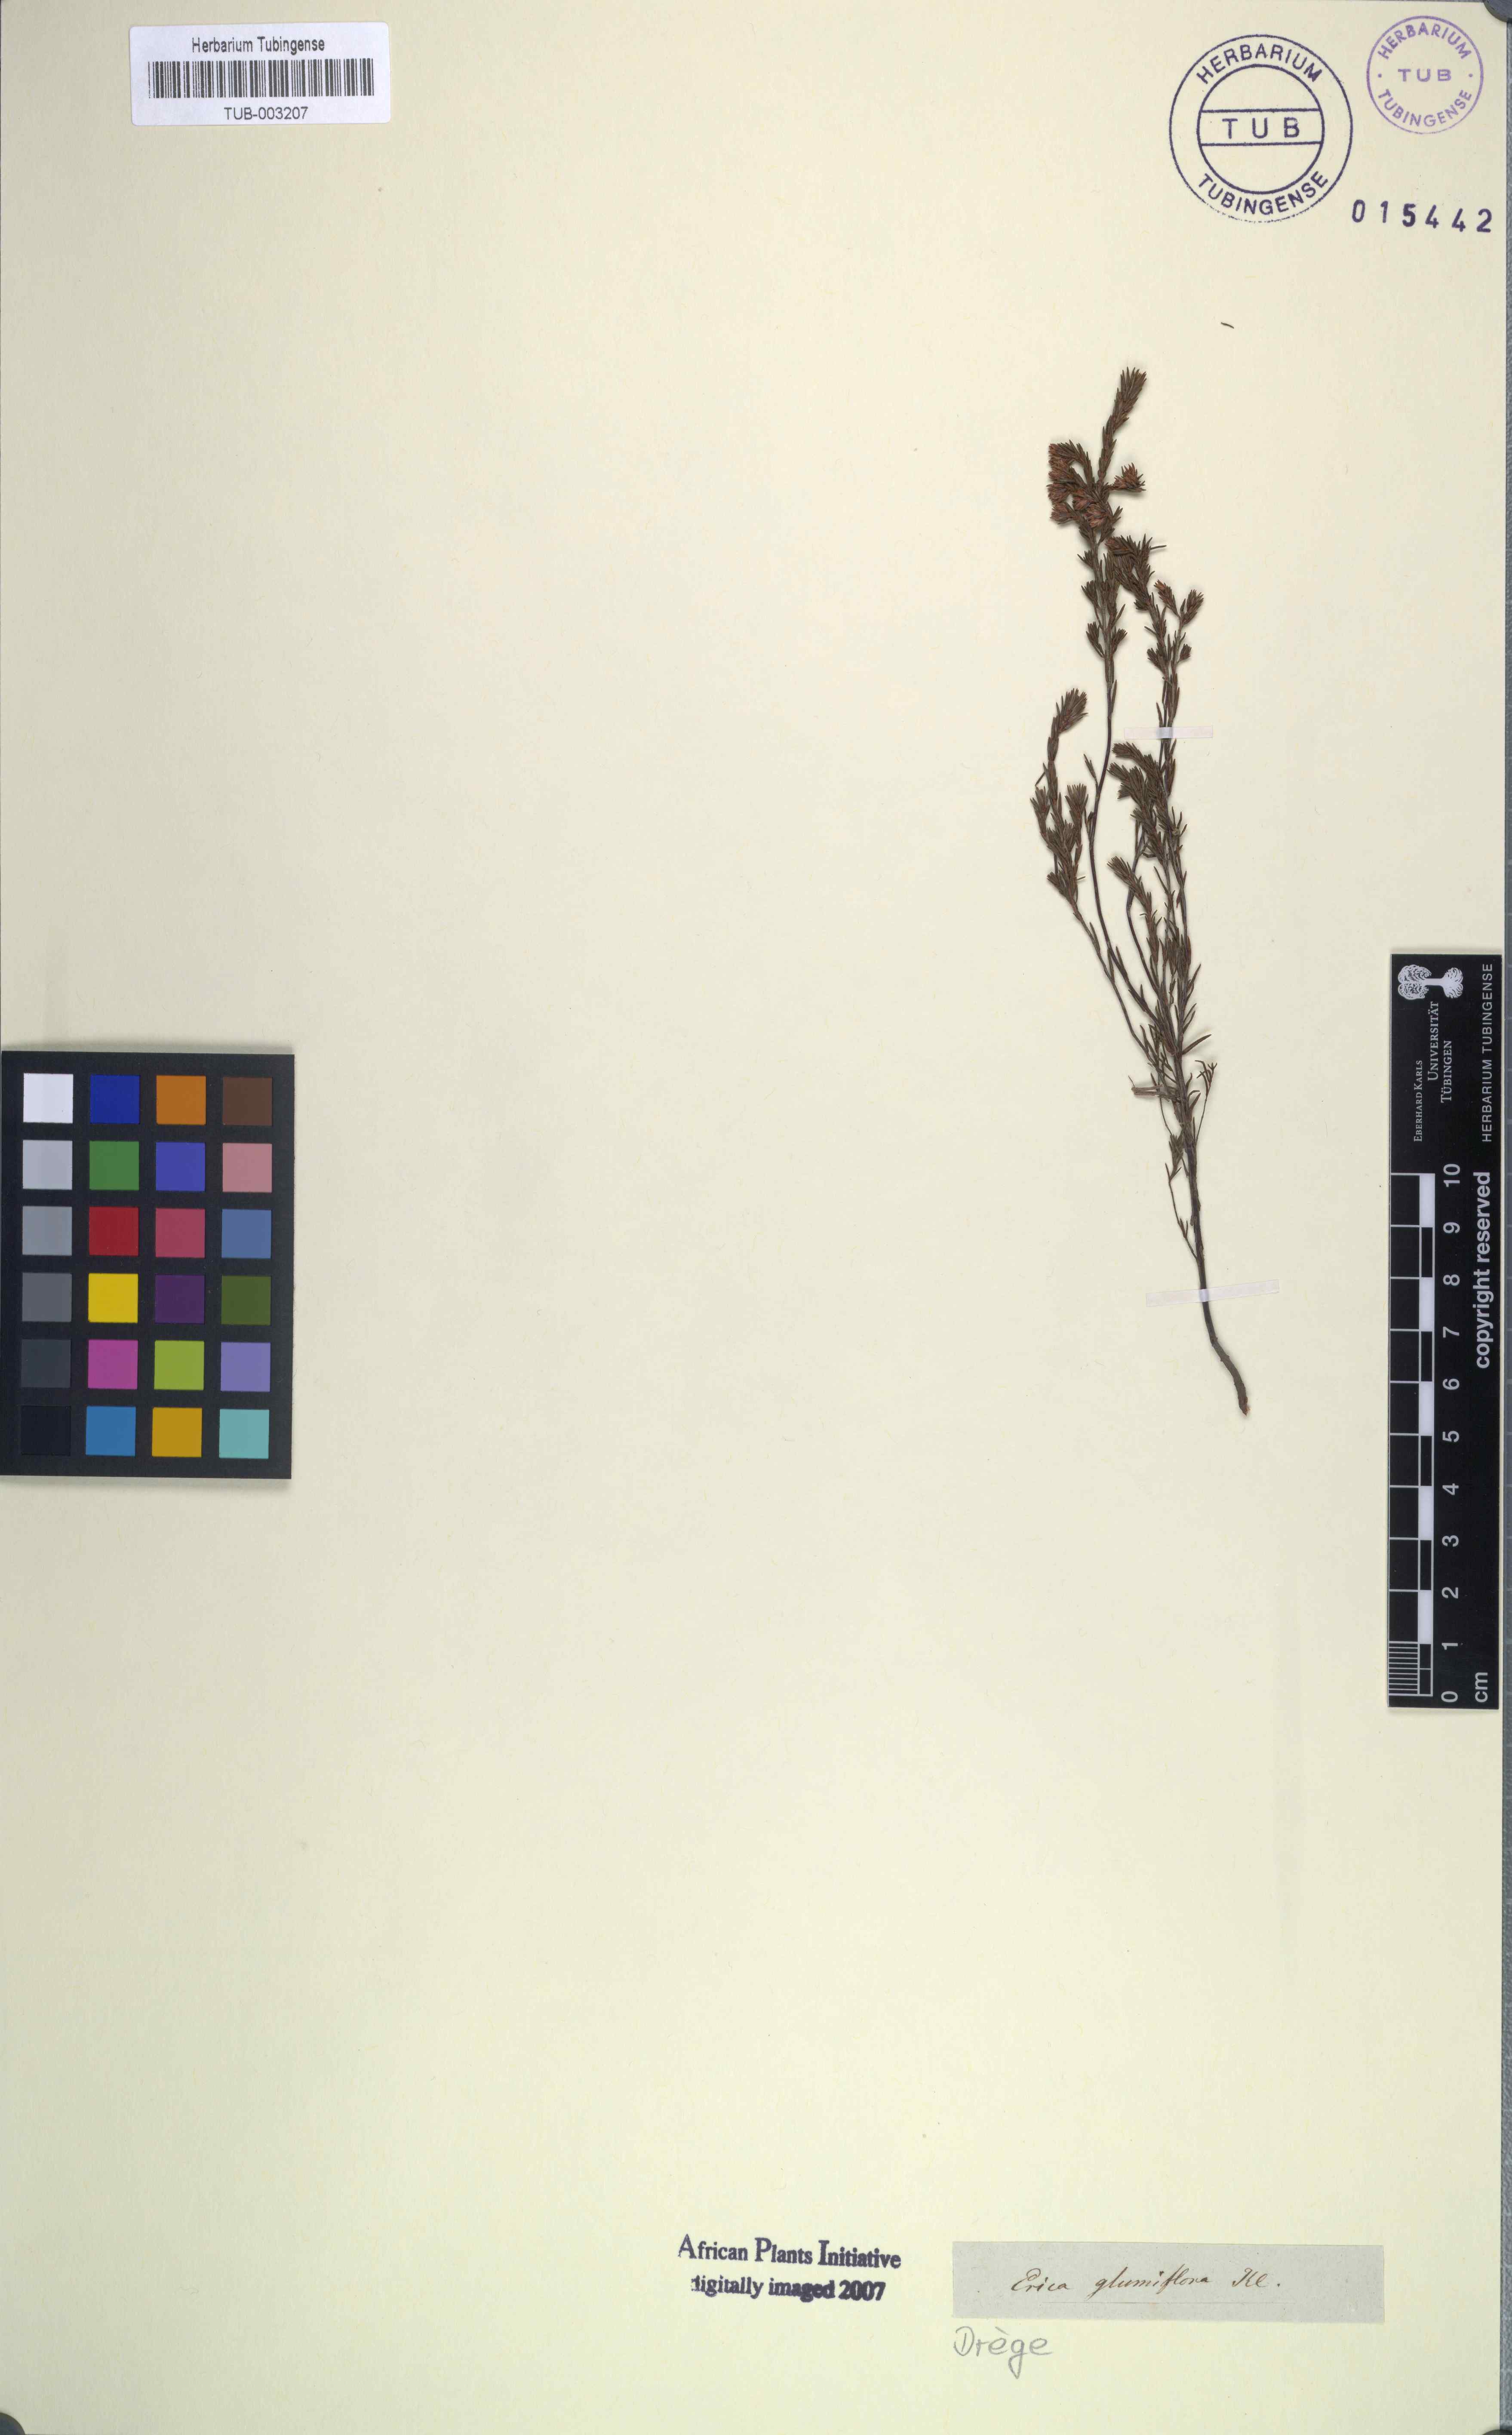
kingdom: Plantae
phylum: Tracheophyta
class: Magnoliopsida
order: Ericales
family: Ericaceae
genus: Erica
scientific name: Erica glumiflora
